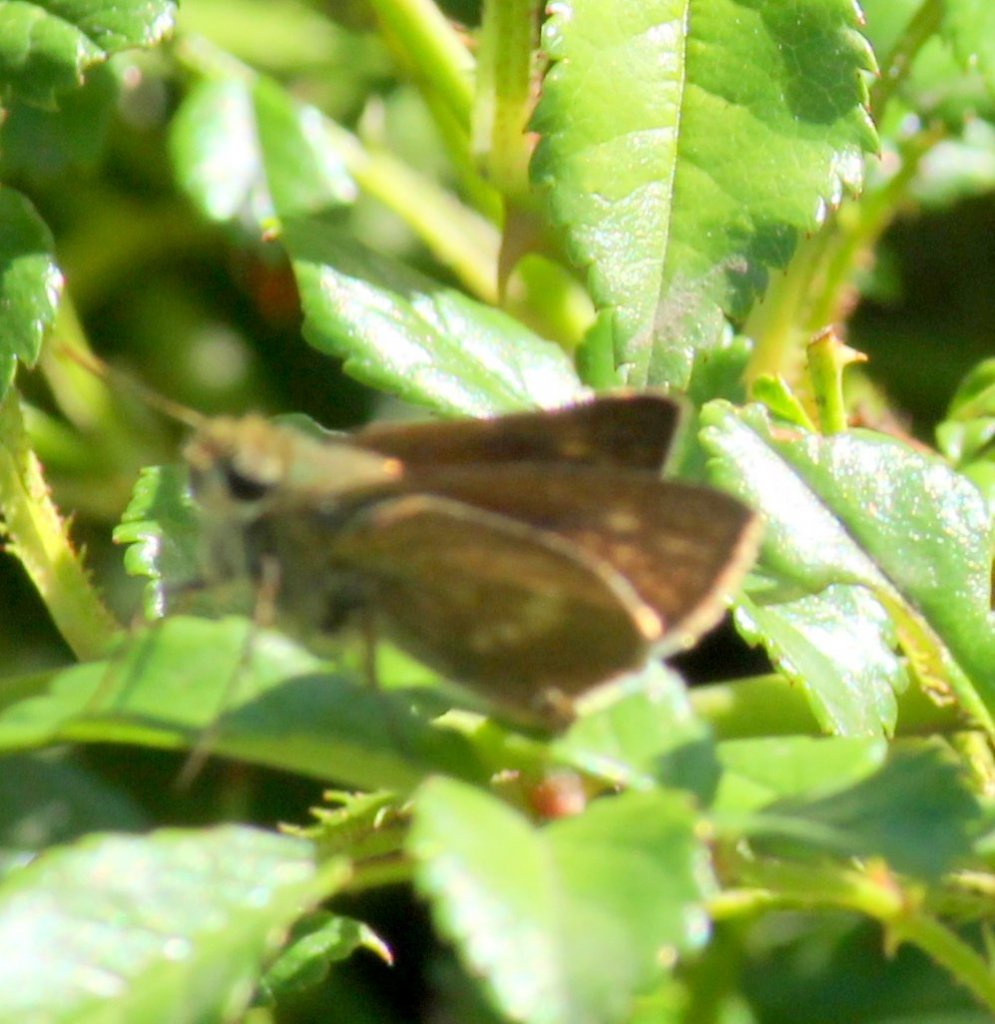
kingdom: Animalia
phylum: Arthropoda
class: Insecta
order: Lepidoptera
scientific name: Lepidoptera
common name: Butterflies
